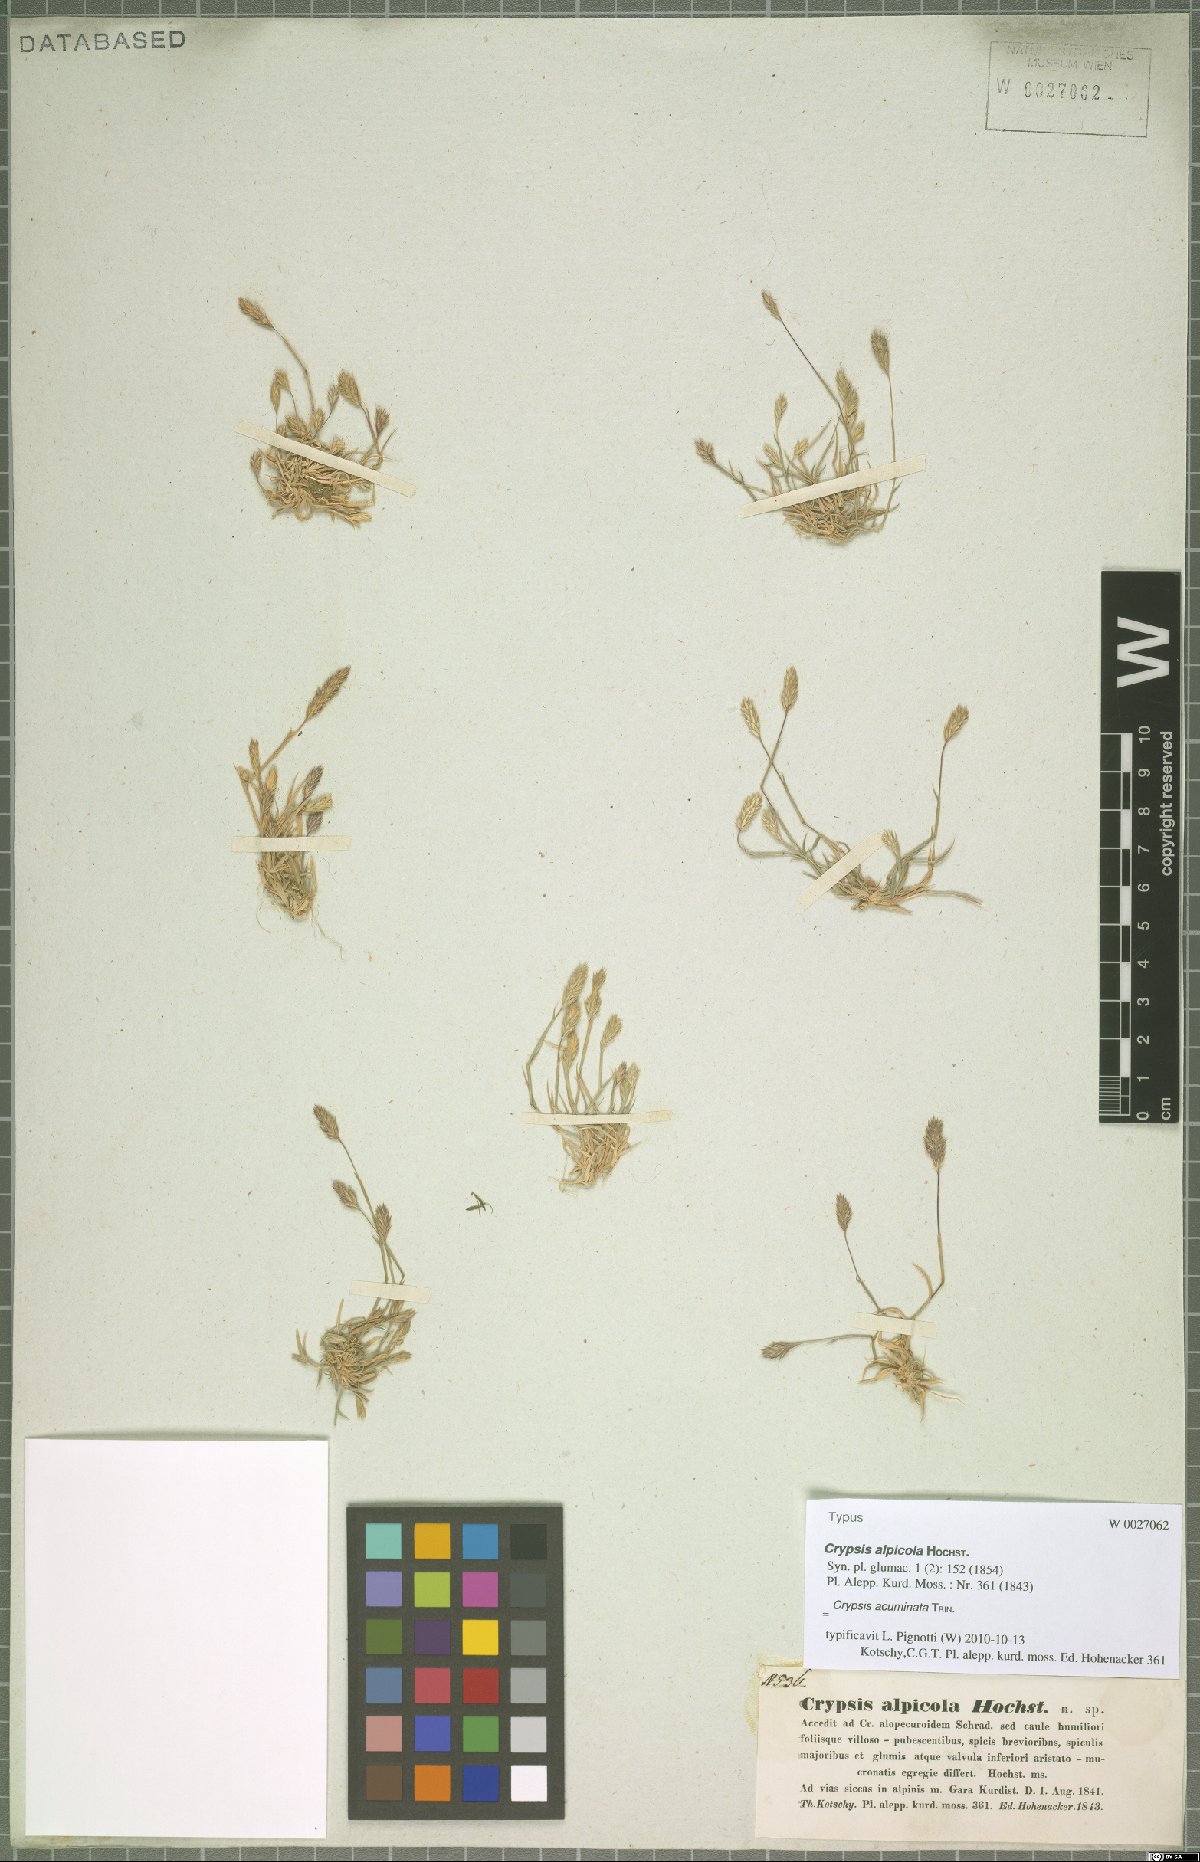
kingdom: Plantae
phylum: Tracheophyta
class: Liliopsida
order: Poales
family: Poaceae
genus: Sporobolus
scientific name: Sporobolus borszczowii
